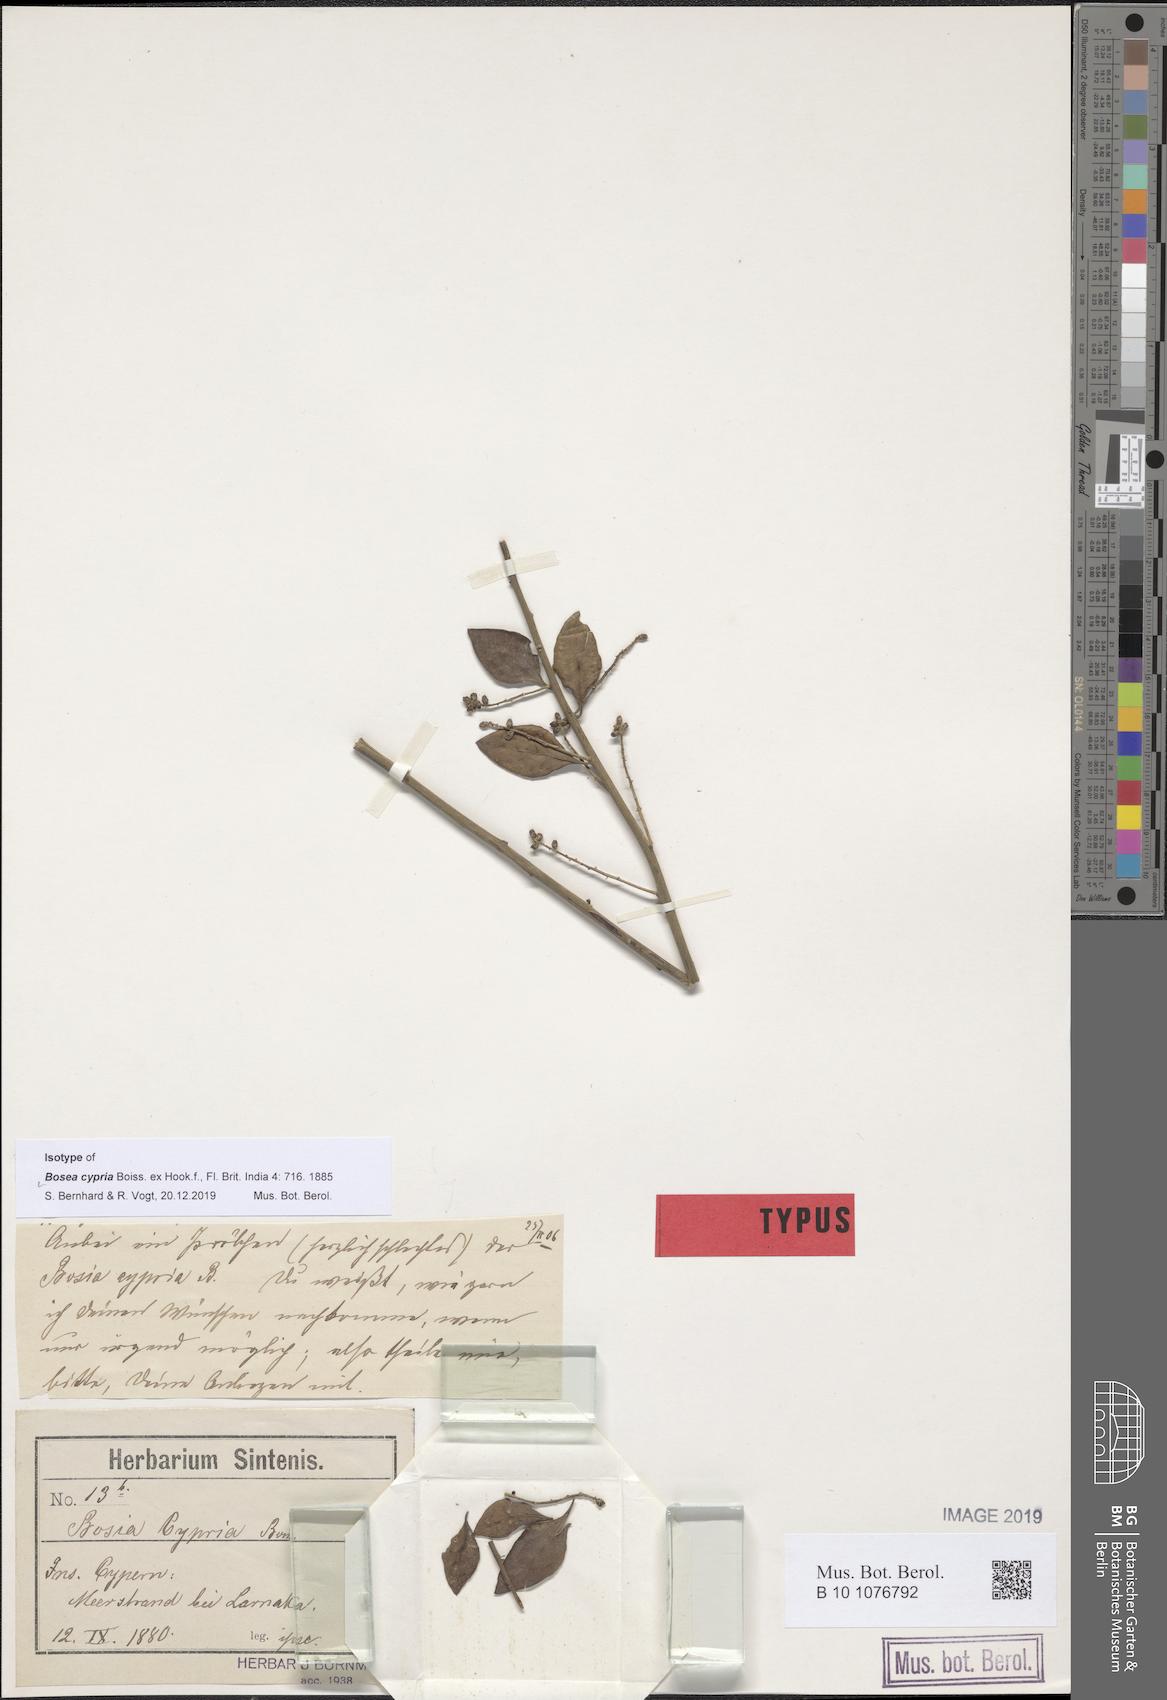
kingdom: Plantae
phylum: Tracheophyta
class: Magnoliopsida
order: Caryophyllales
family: Amaranthaceae
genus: Bosea
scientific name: Bosea cypria
